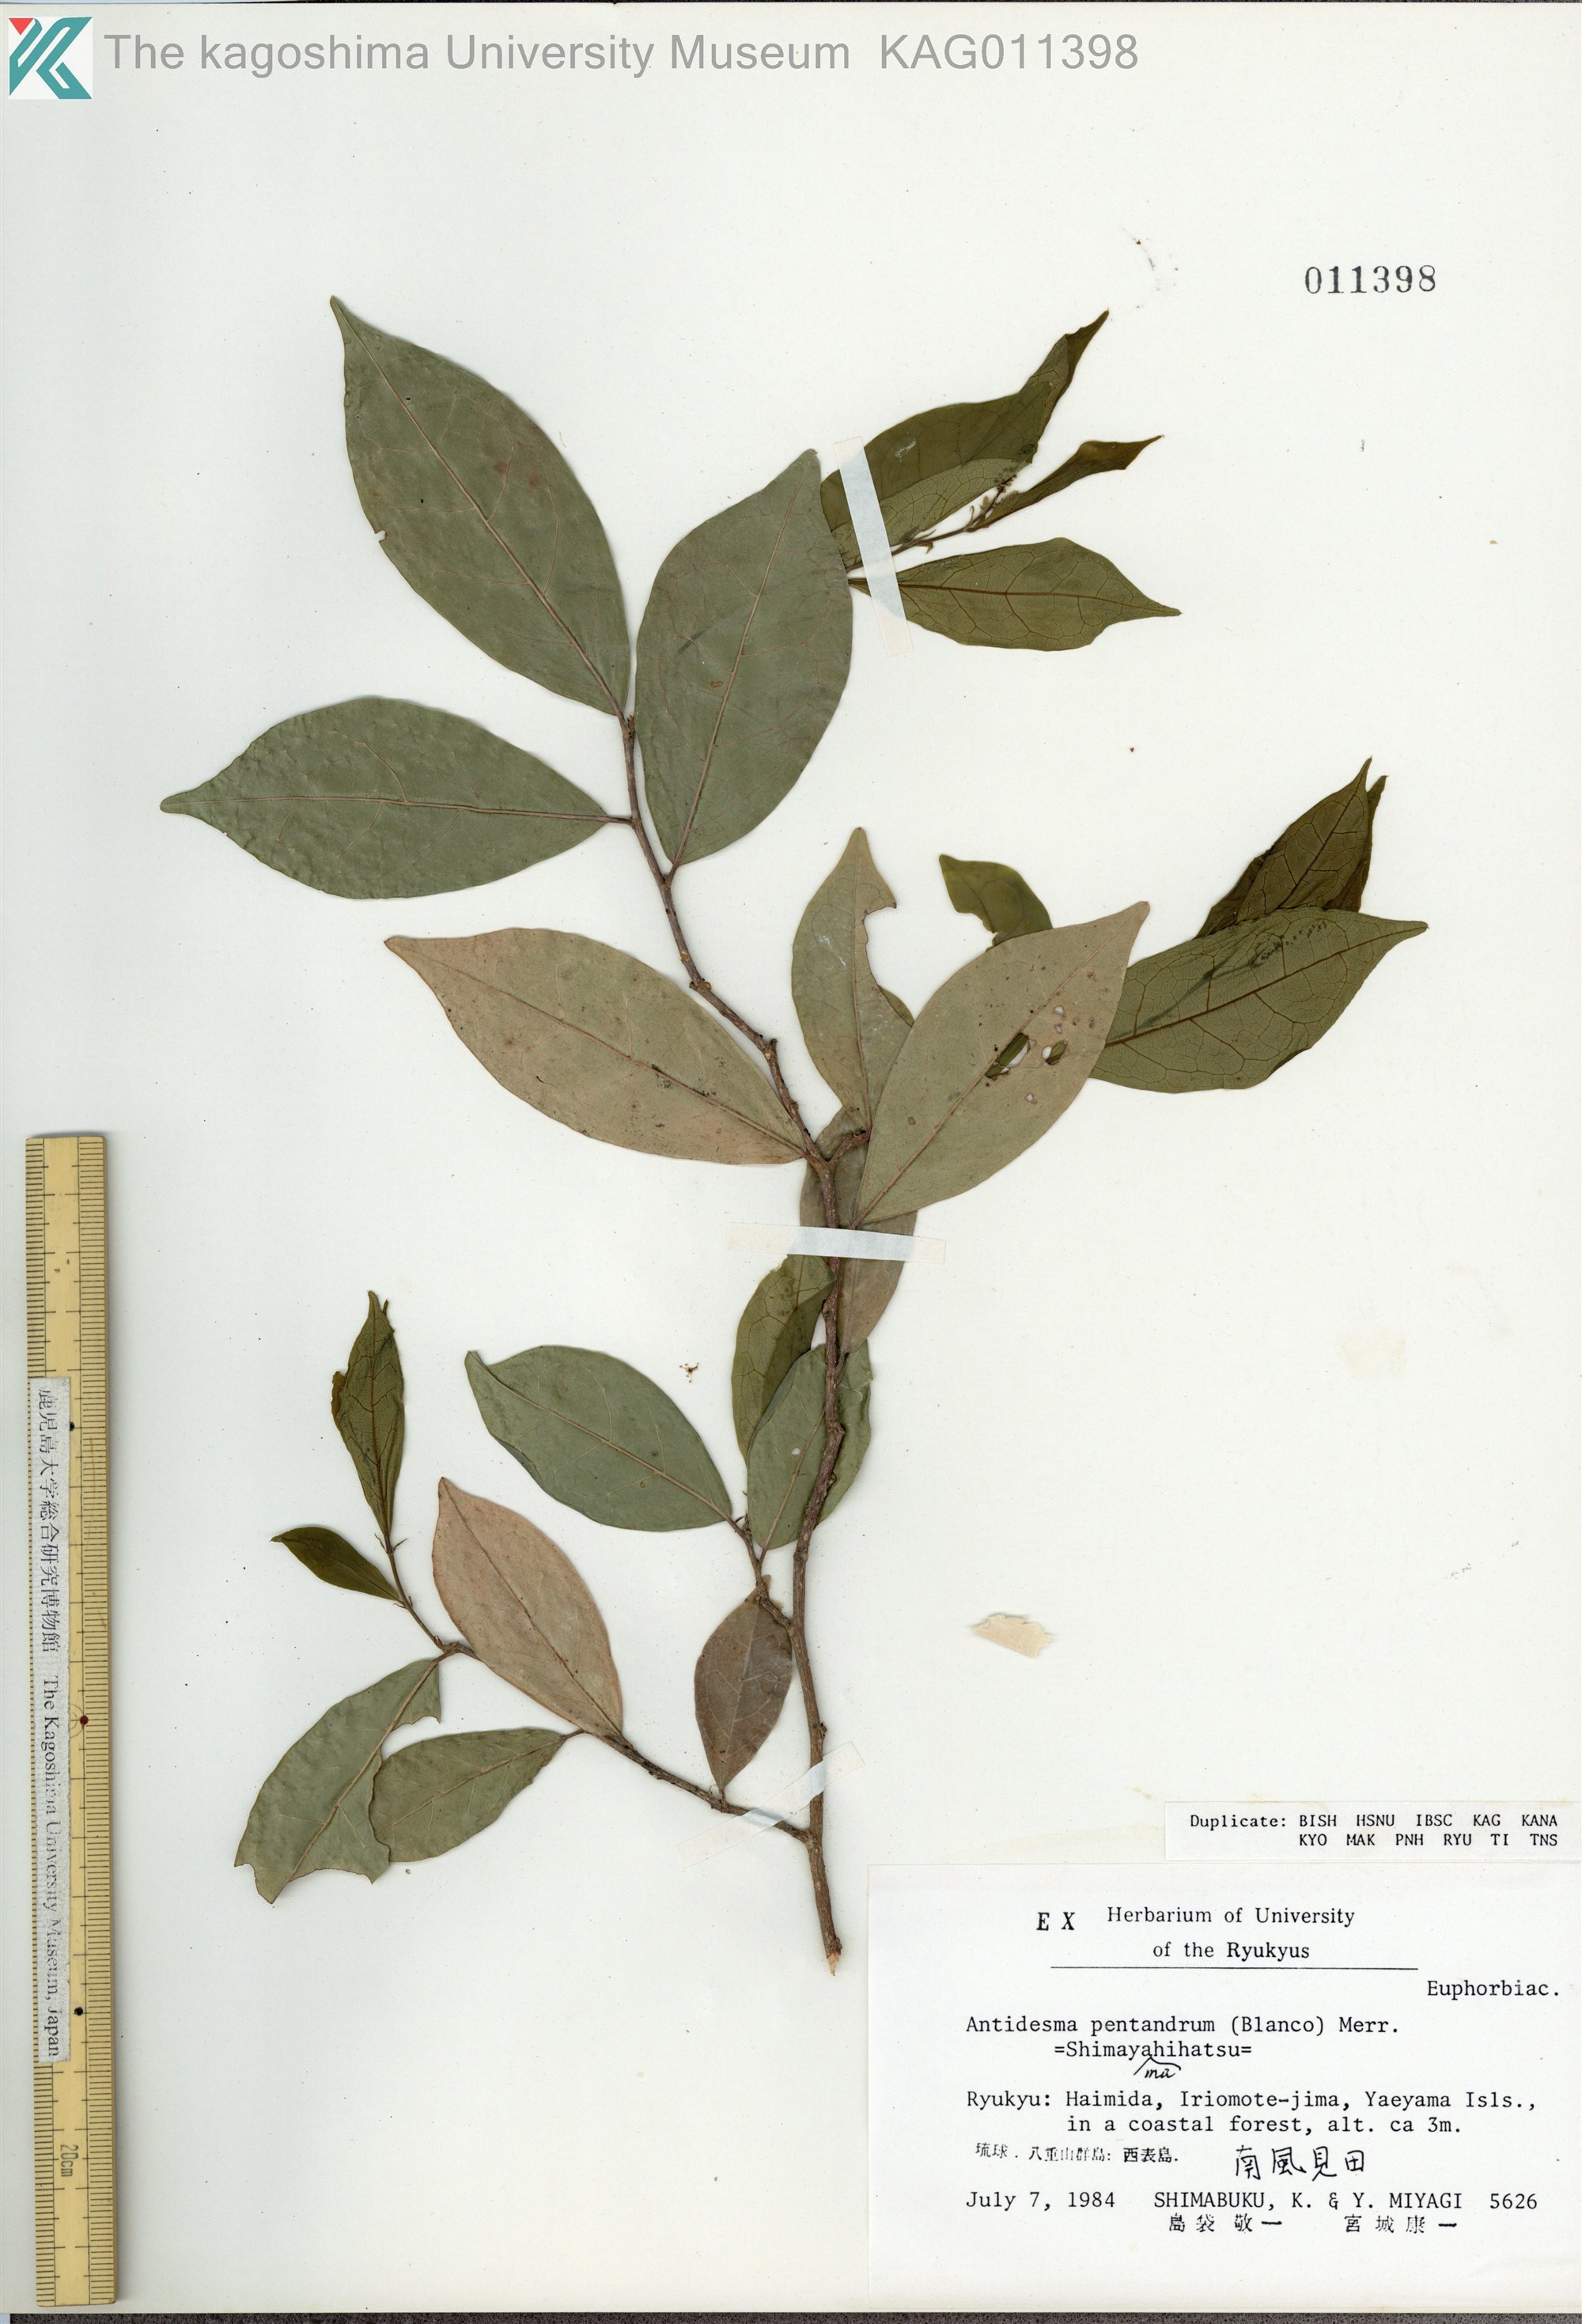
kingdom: Plantae
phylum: Tracheophyta
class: Magnoliopsida
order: Malpighiales
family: Phyllanthaceae
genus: Antidesma
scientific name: Antidesma montanum
